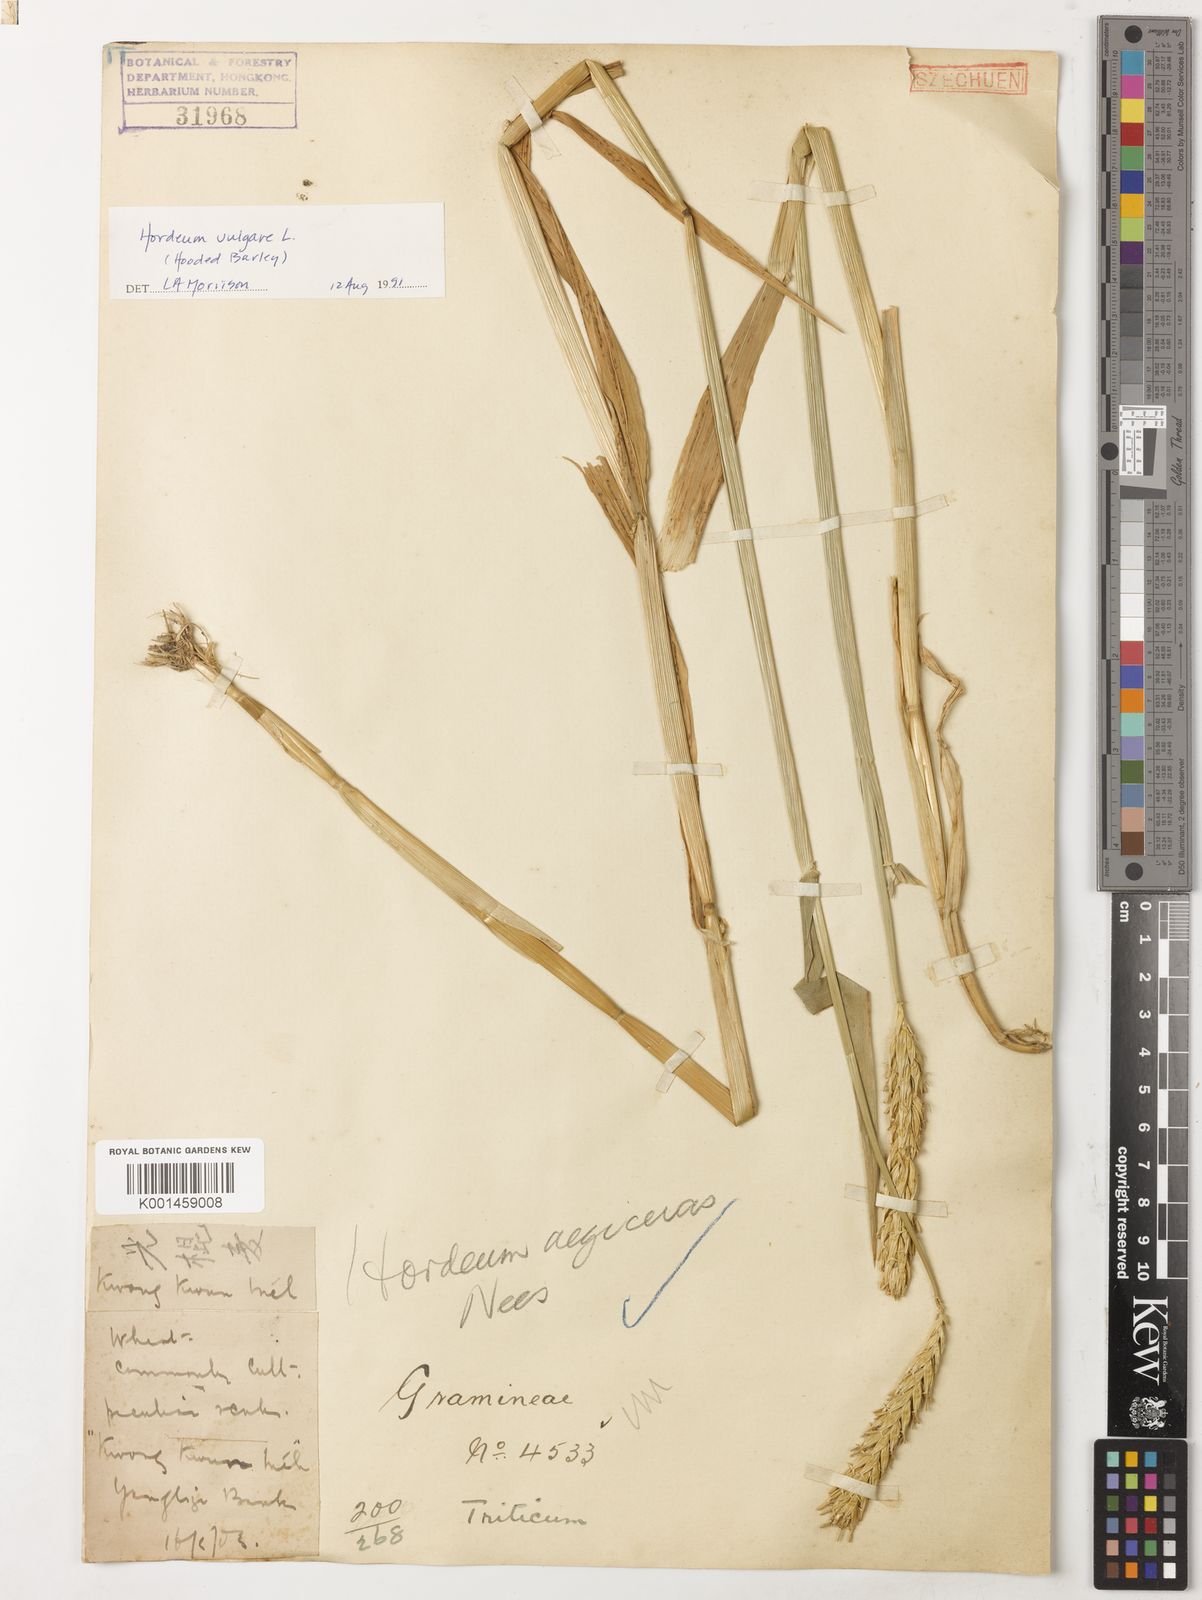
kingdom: Plantae
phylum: Tracheophyta
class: Liliopsida
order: Poales
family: Poaceae
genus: Hordeum
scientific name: Hordeum vulgare
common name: Common barley
